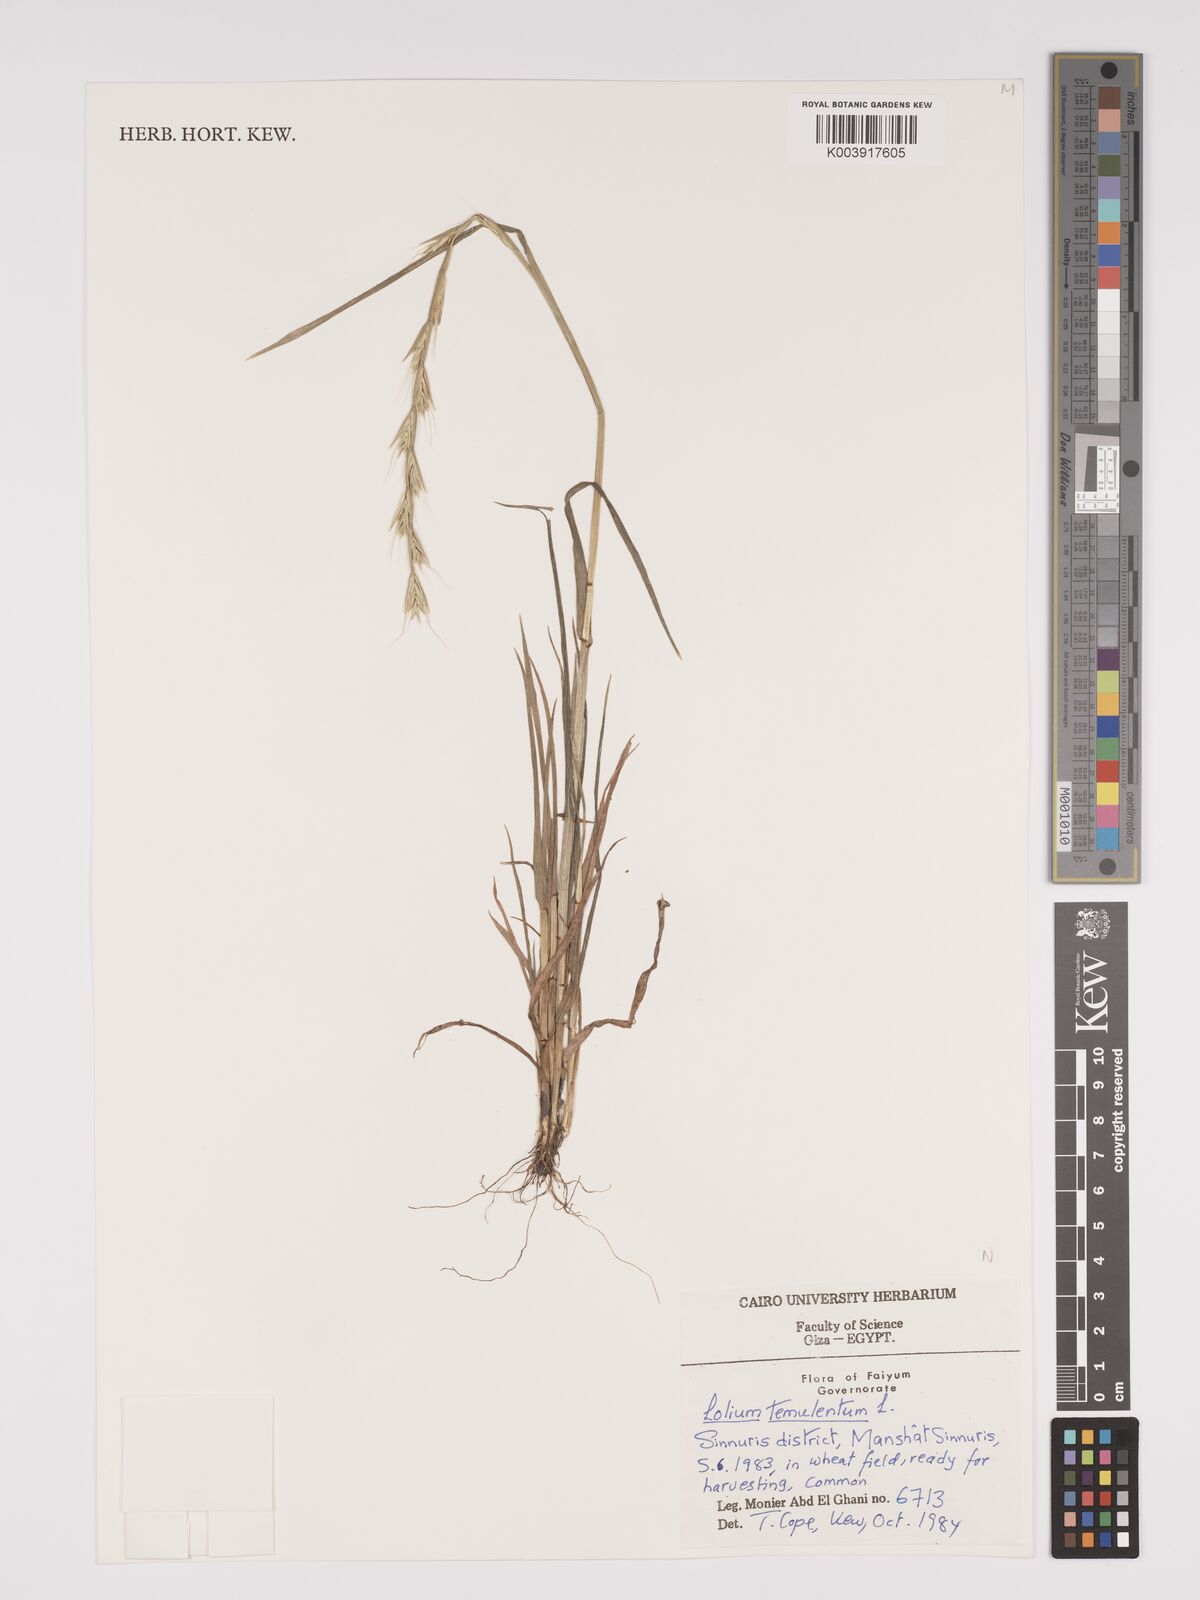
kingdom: Plantae
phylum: Tracheophyta
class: Liliopsida
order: Poales
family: Poaceae
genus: Lolium
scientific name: Lolium temulentum
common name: Darnel
